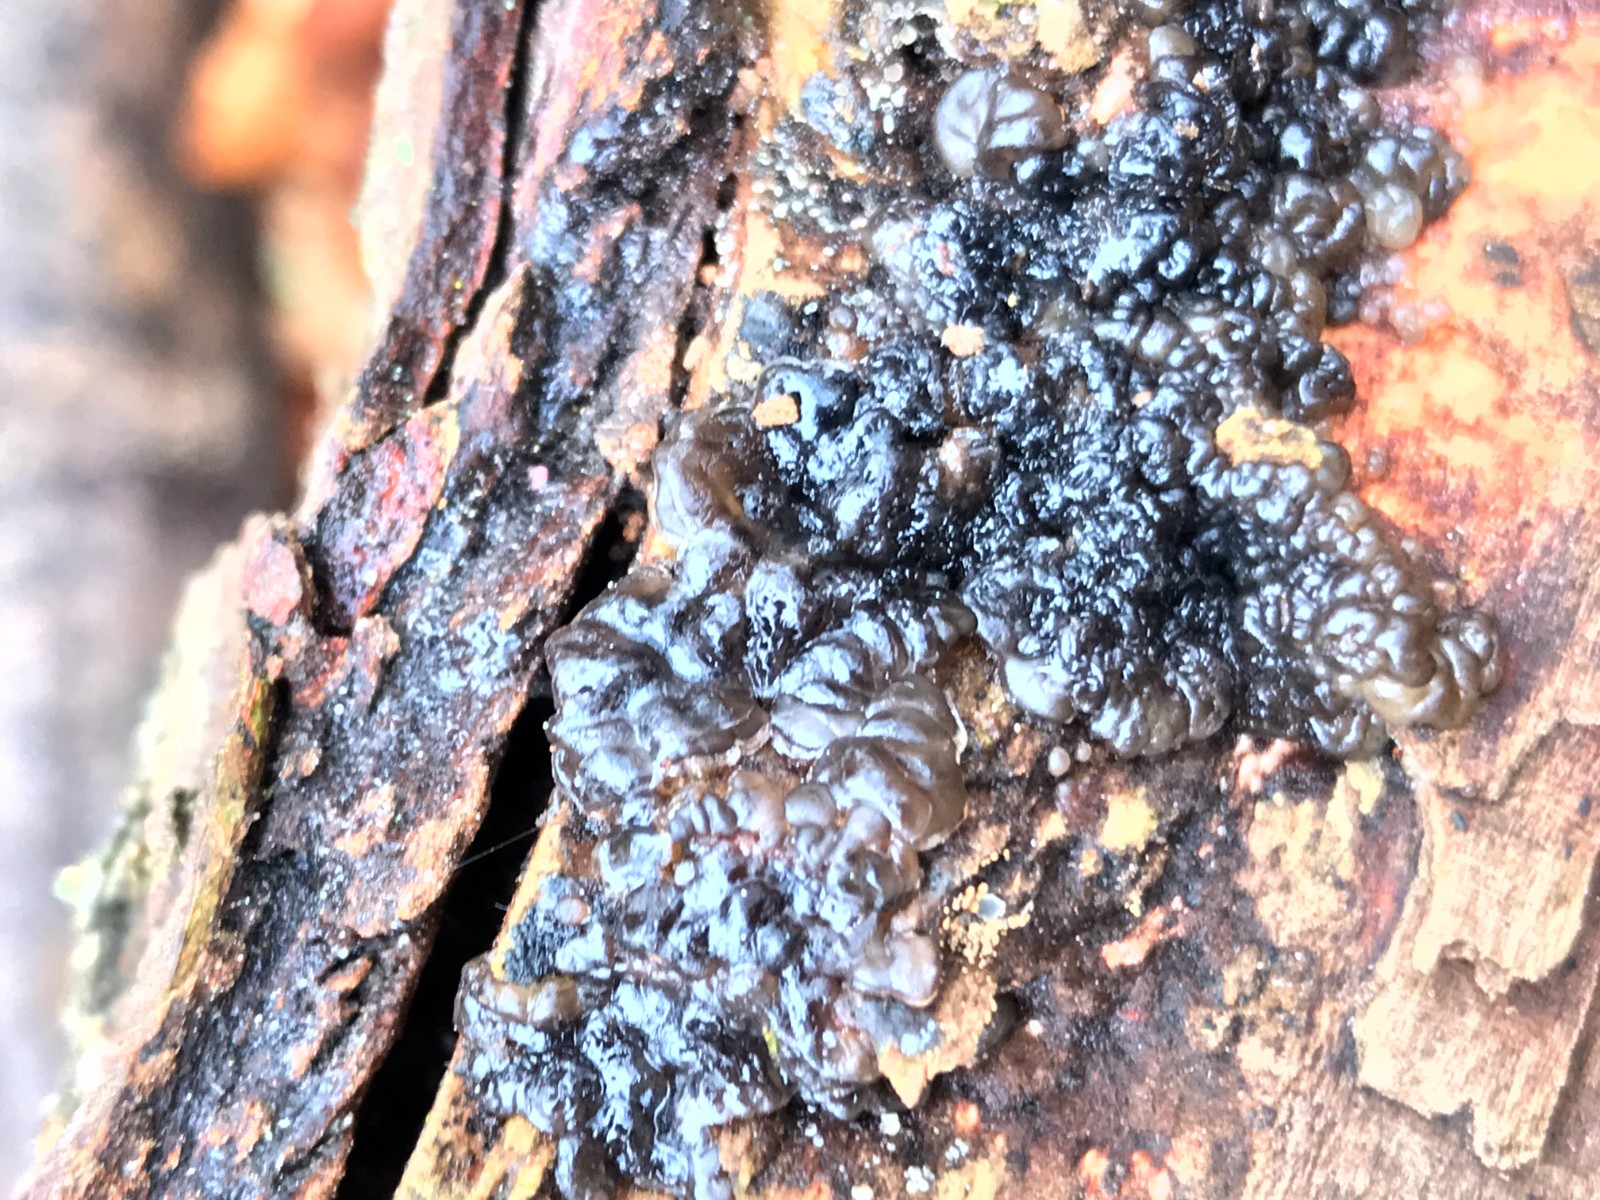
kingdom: Fungi
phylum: Basidiomycota
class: Agaricomycetes
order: Auriculariales
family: Auriculariaceae
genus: Exidia
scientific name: Exidia nigricans
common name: almindelig bævretop
